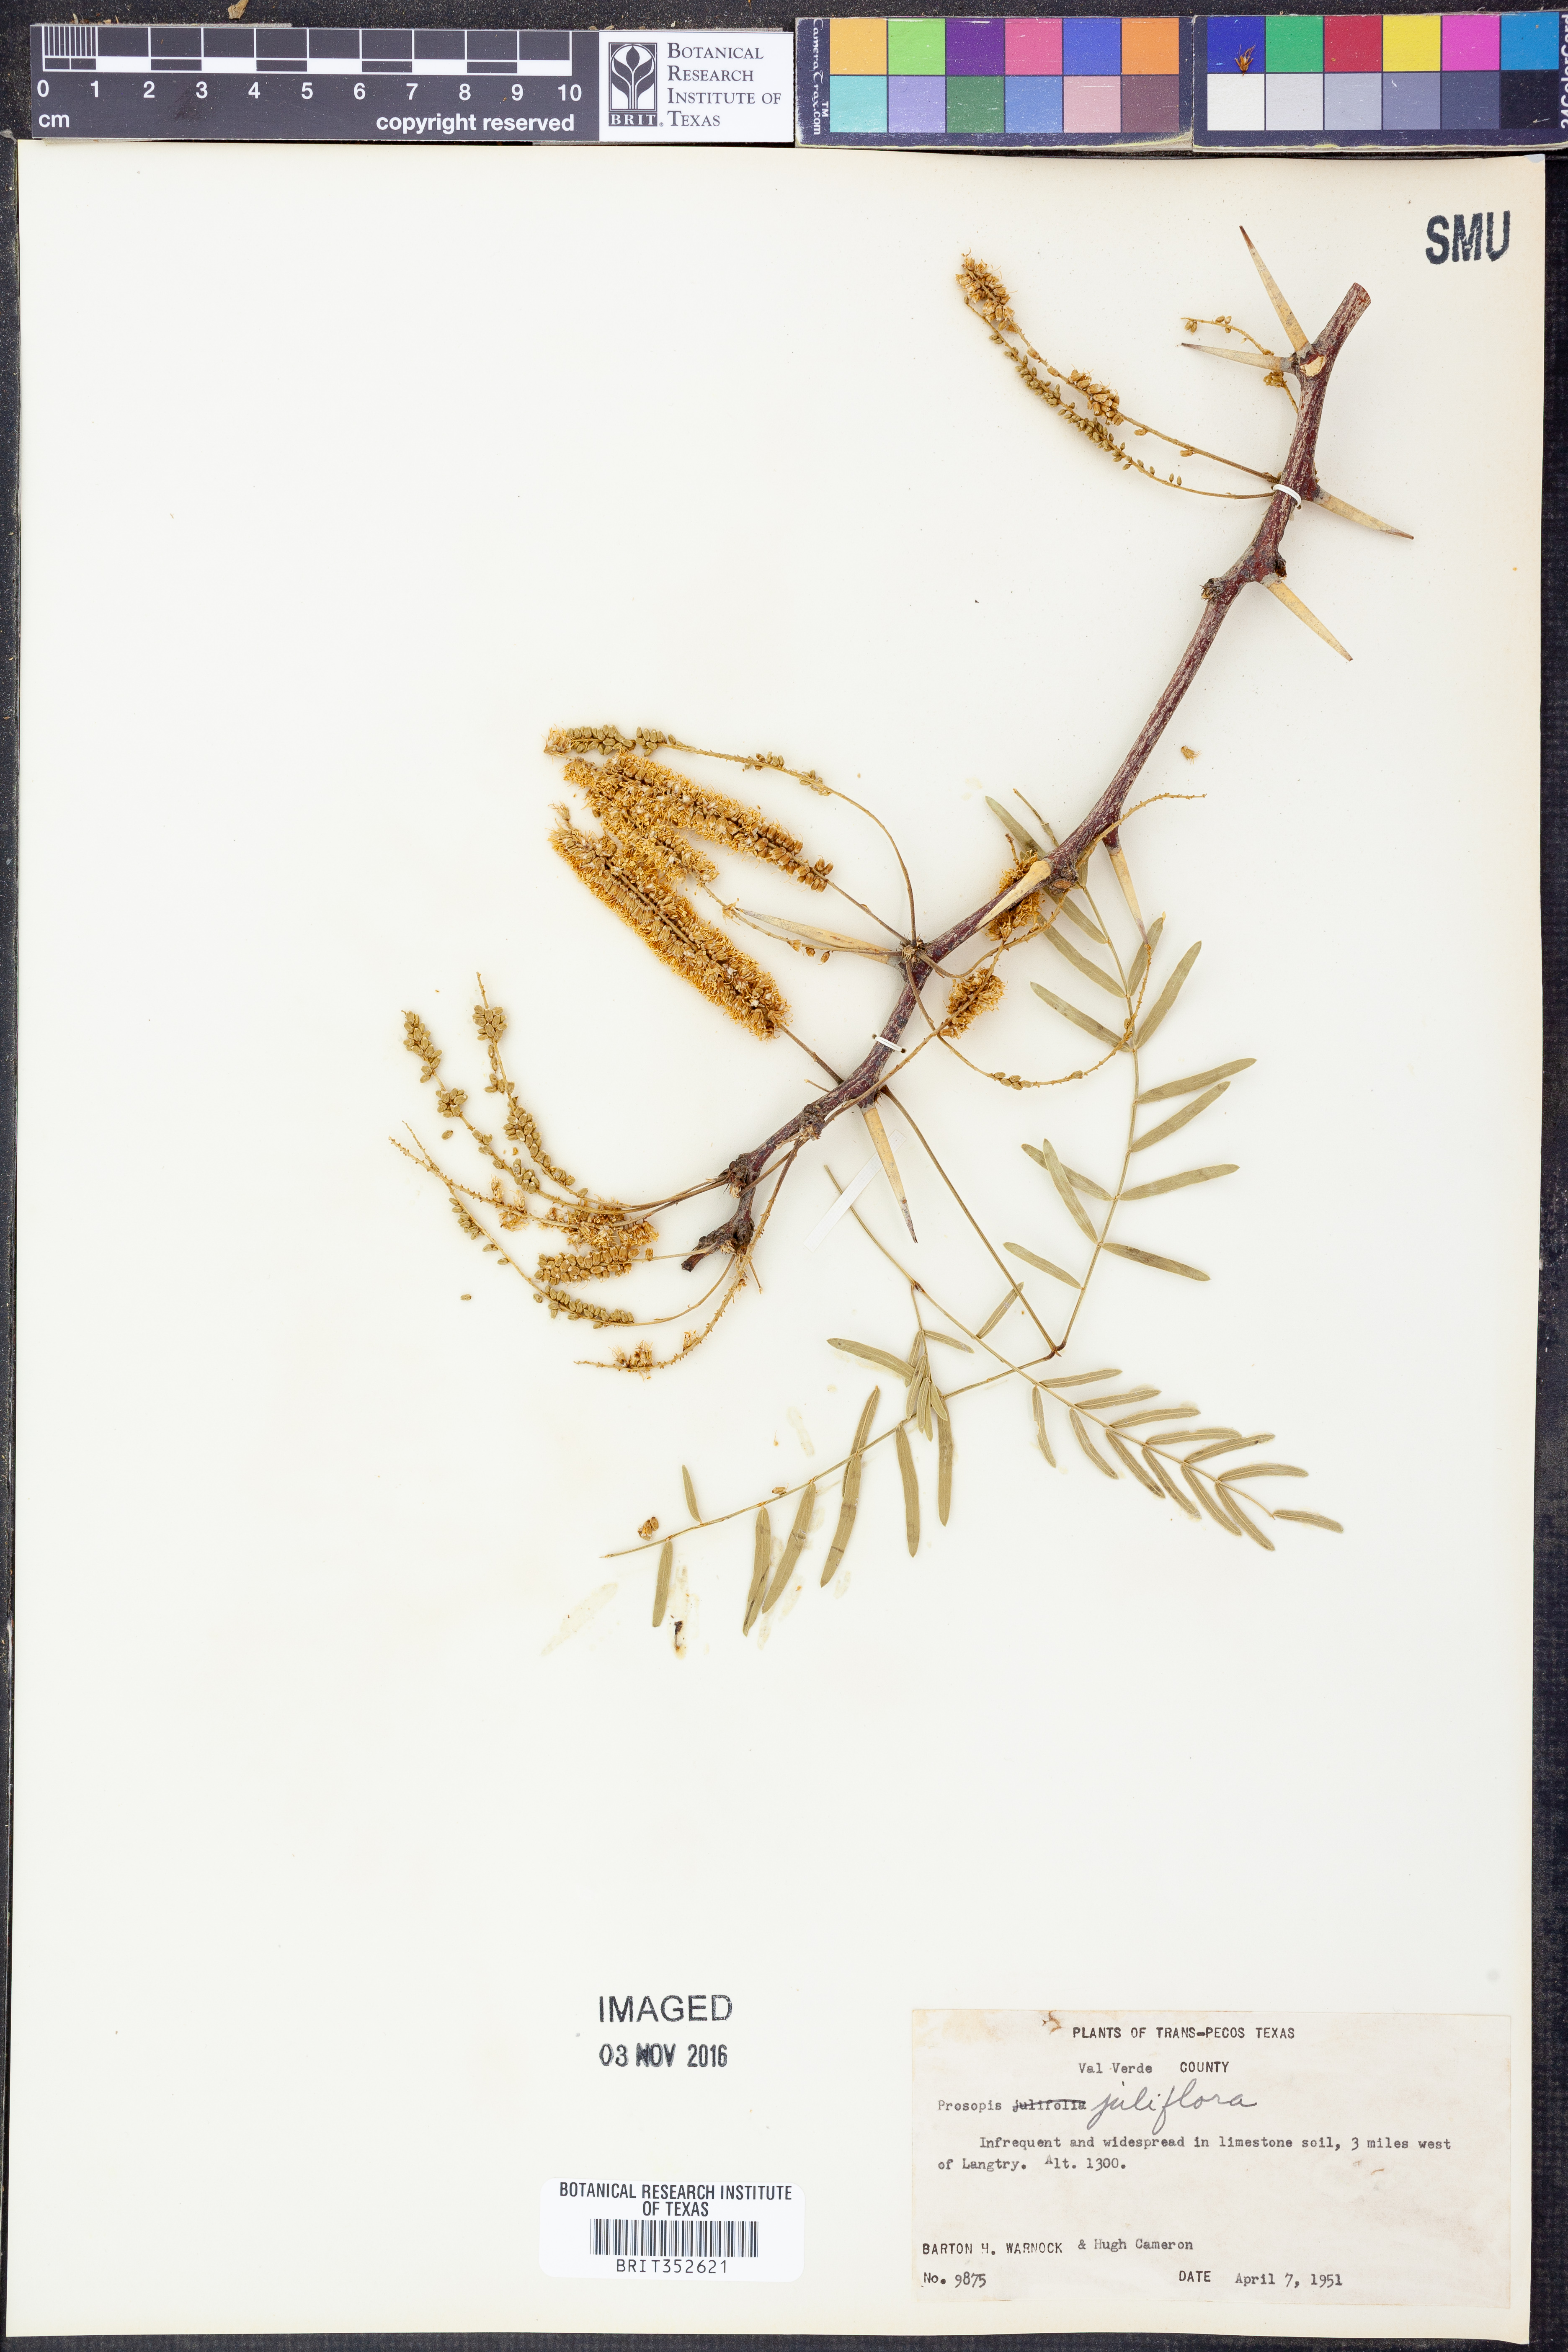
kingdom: Plantae
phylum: Tracheophyta
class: Magnoliopsida
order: Fabales
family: Fabaceae
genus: Prosopis
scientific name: Prosopis juliflora
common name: Mesquite
